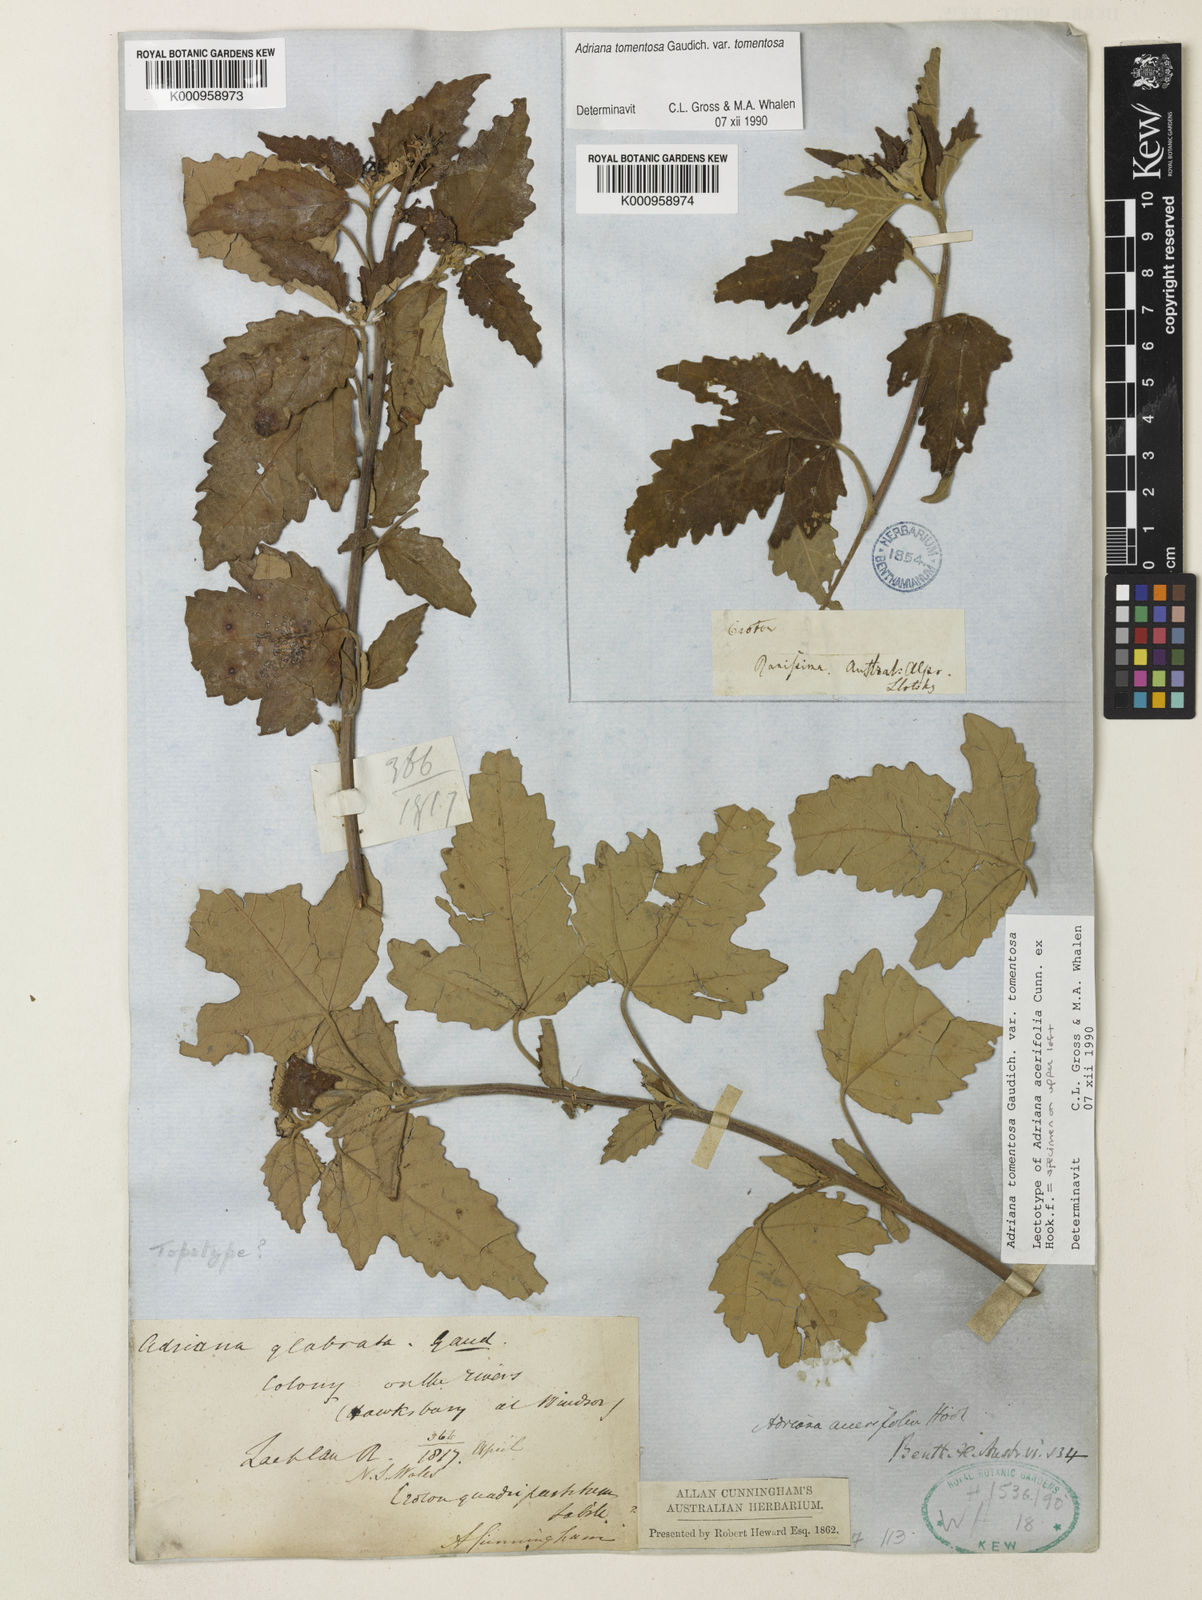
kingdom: Plantae
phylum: Tracheophyta
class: Magnoliopsida
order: Malpighiales
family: Euphorbiaceae
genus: Adriana
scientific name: Adriana tomentosa
